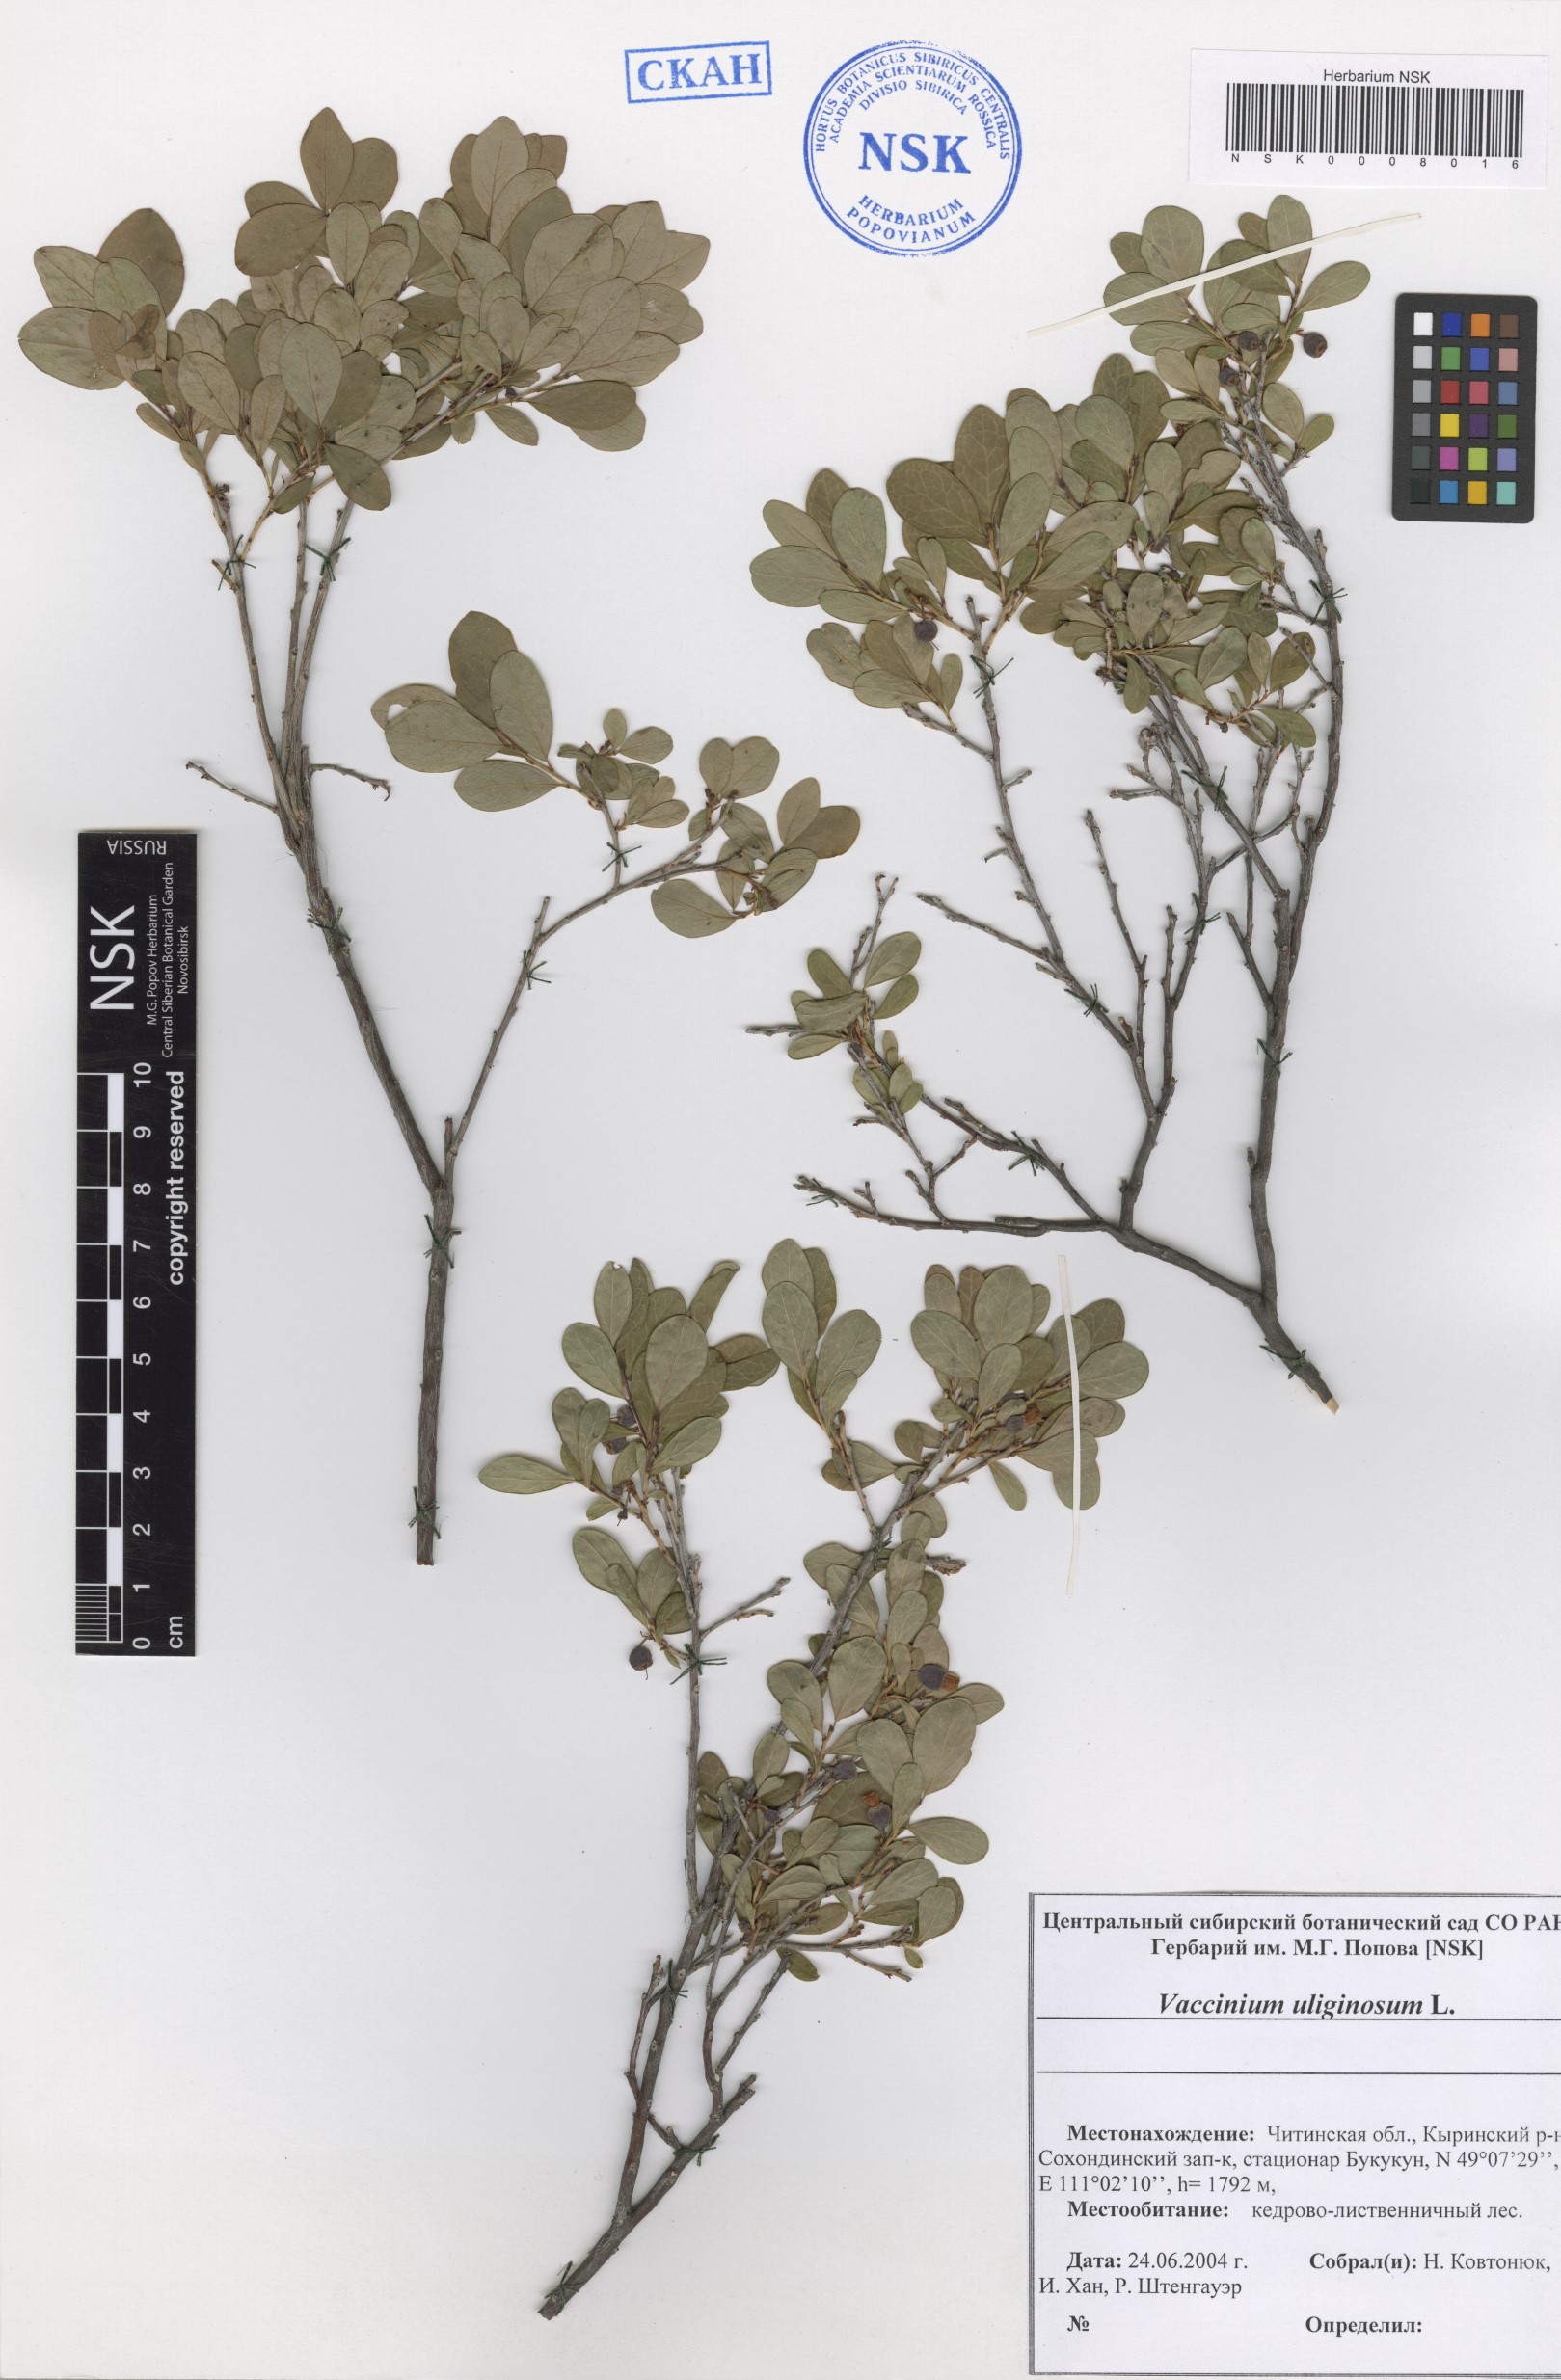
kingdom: Plantae
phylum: Tracheophyta
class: Magnoliopsida
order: Ericales
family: Ericaceae
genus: Vaccinium
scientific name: Vaccinium uliginosum
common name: Bog bilberry
